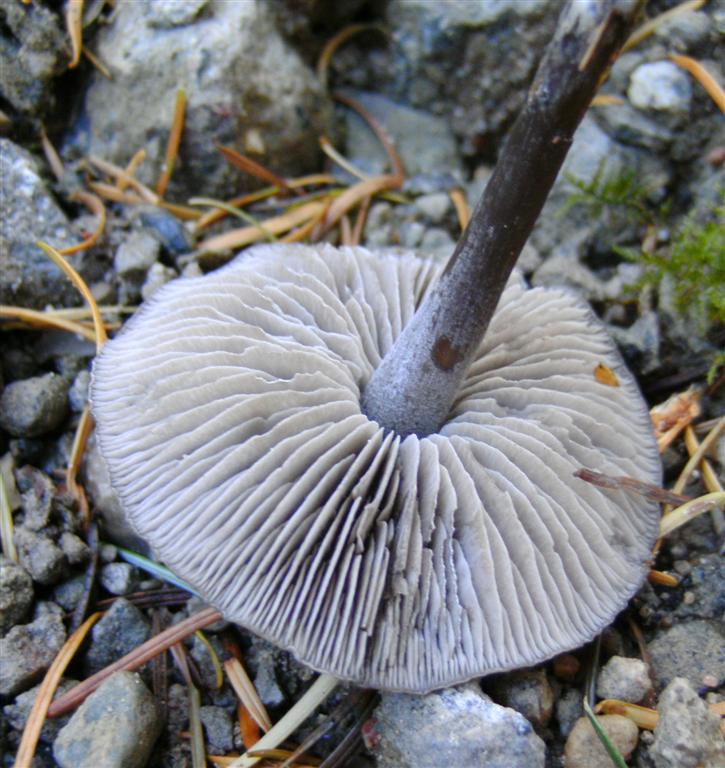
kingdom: Fungi
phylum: Basidiomycota
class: Agaricomycetes
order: Agaricales
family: Lyophyllaceae
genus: Tephrocybe
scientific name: Tephrocybe rancida
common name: mel-gråblad
